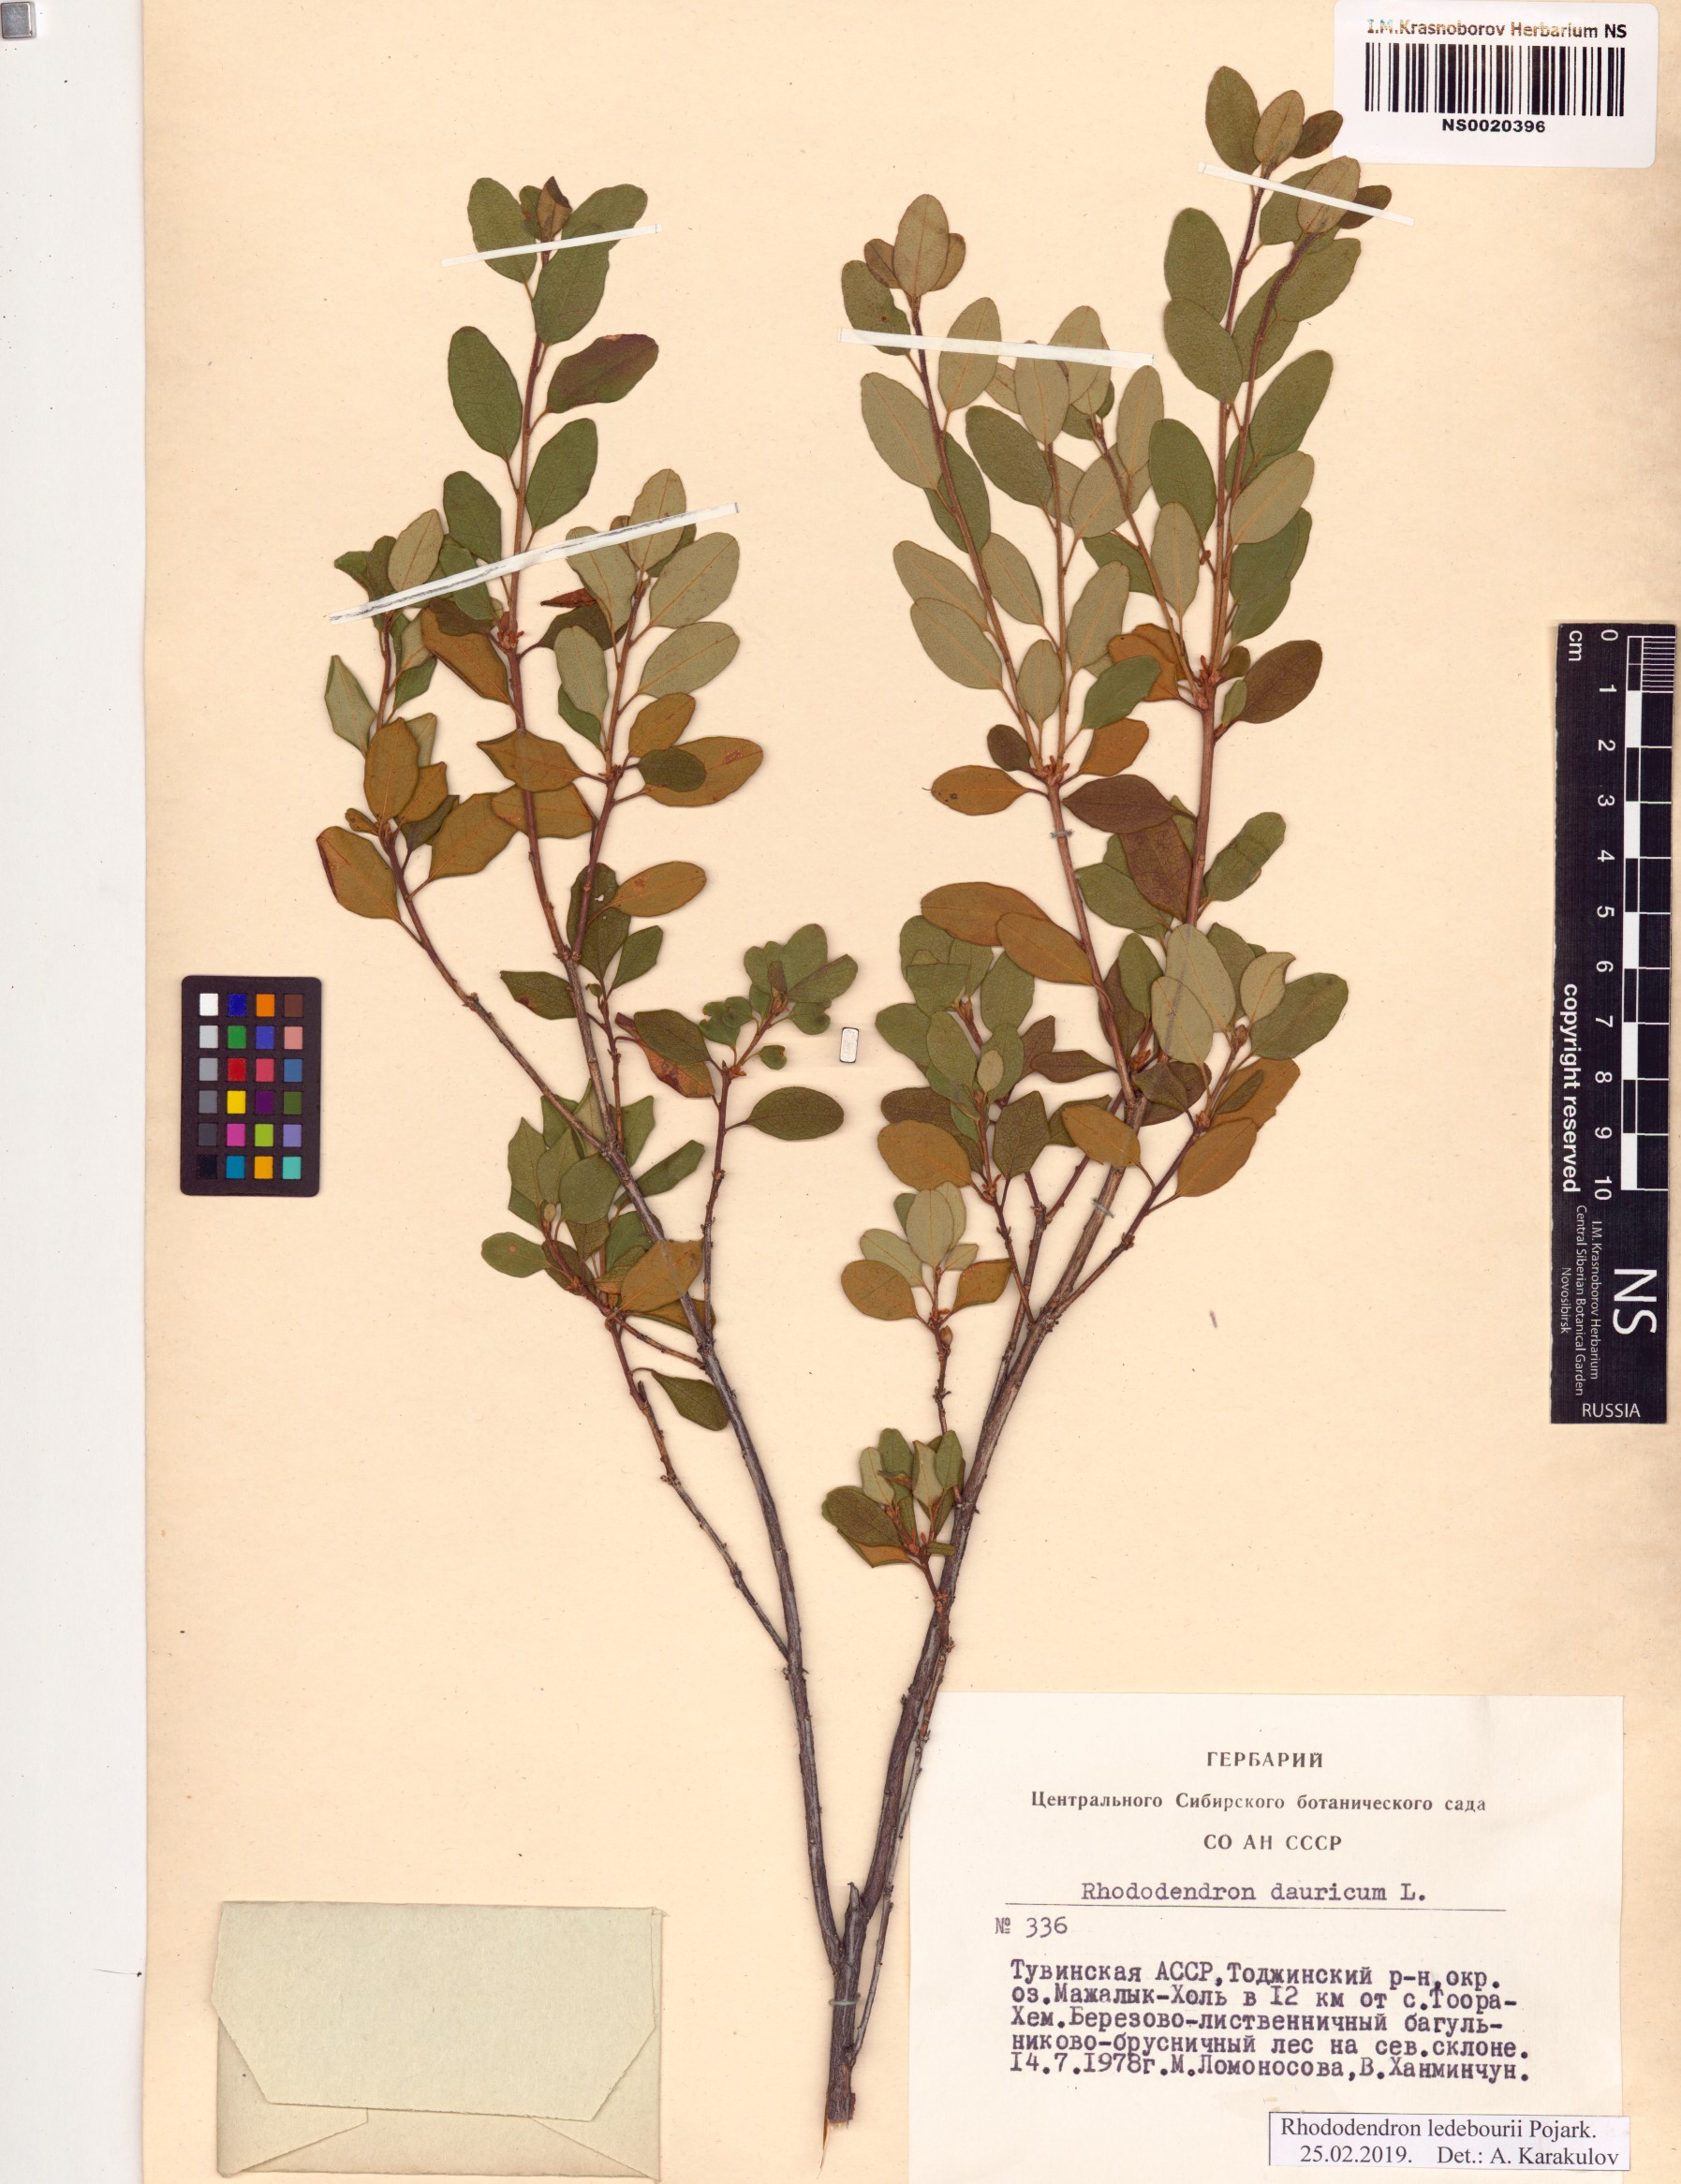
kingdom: Plantae
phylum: Tracheophyta
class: Magnoliopsida
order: Ericales
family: Ericaceae
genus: Rhododendron
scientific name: Rhododendron dauricum
